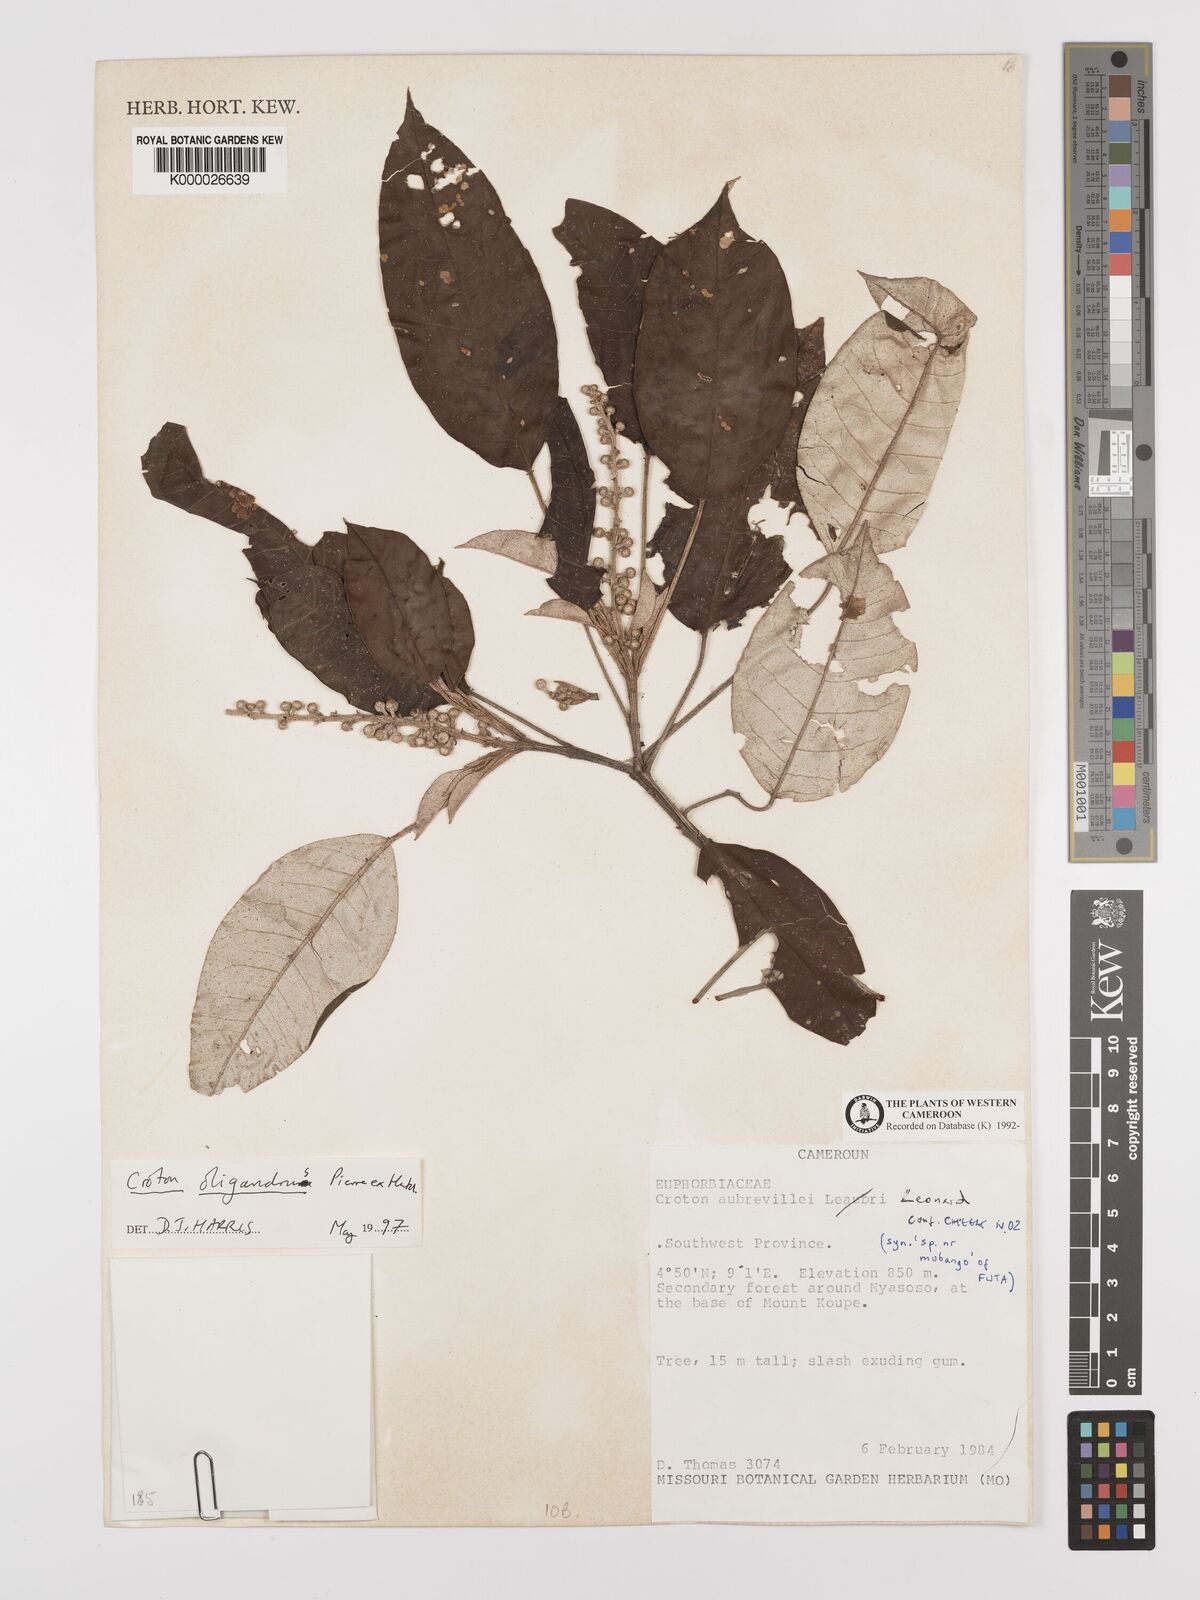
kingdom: Plantae
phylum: Tracheophyta
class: Magnoliopsida
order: Malpighiales
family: Euphorbiaceae
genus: Croton
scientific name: Croton
